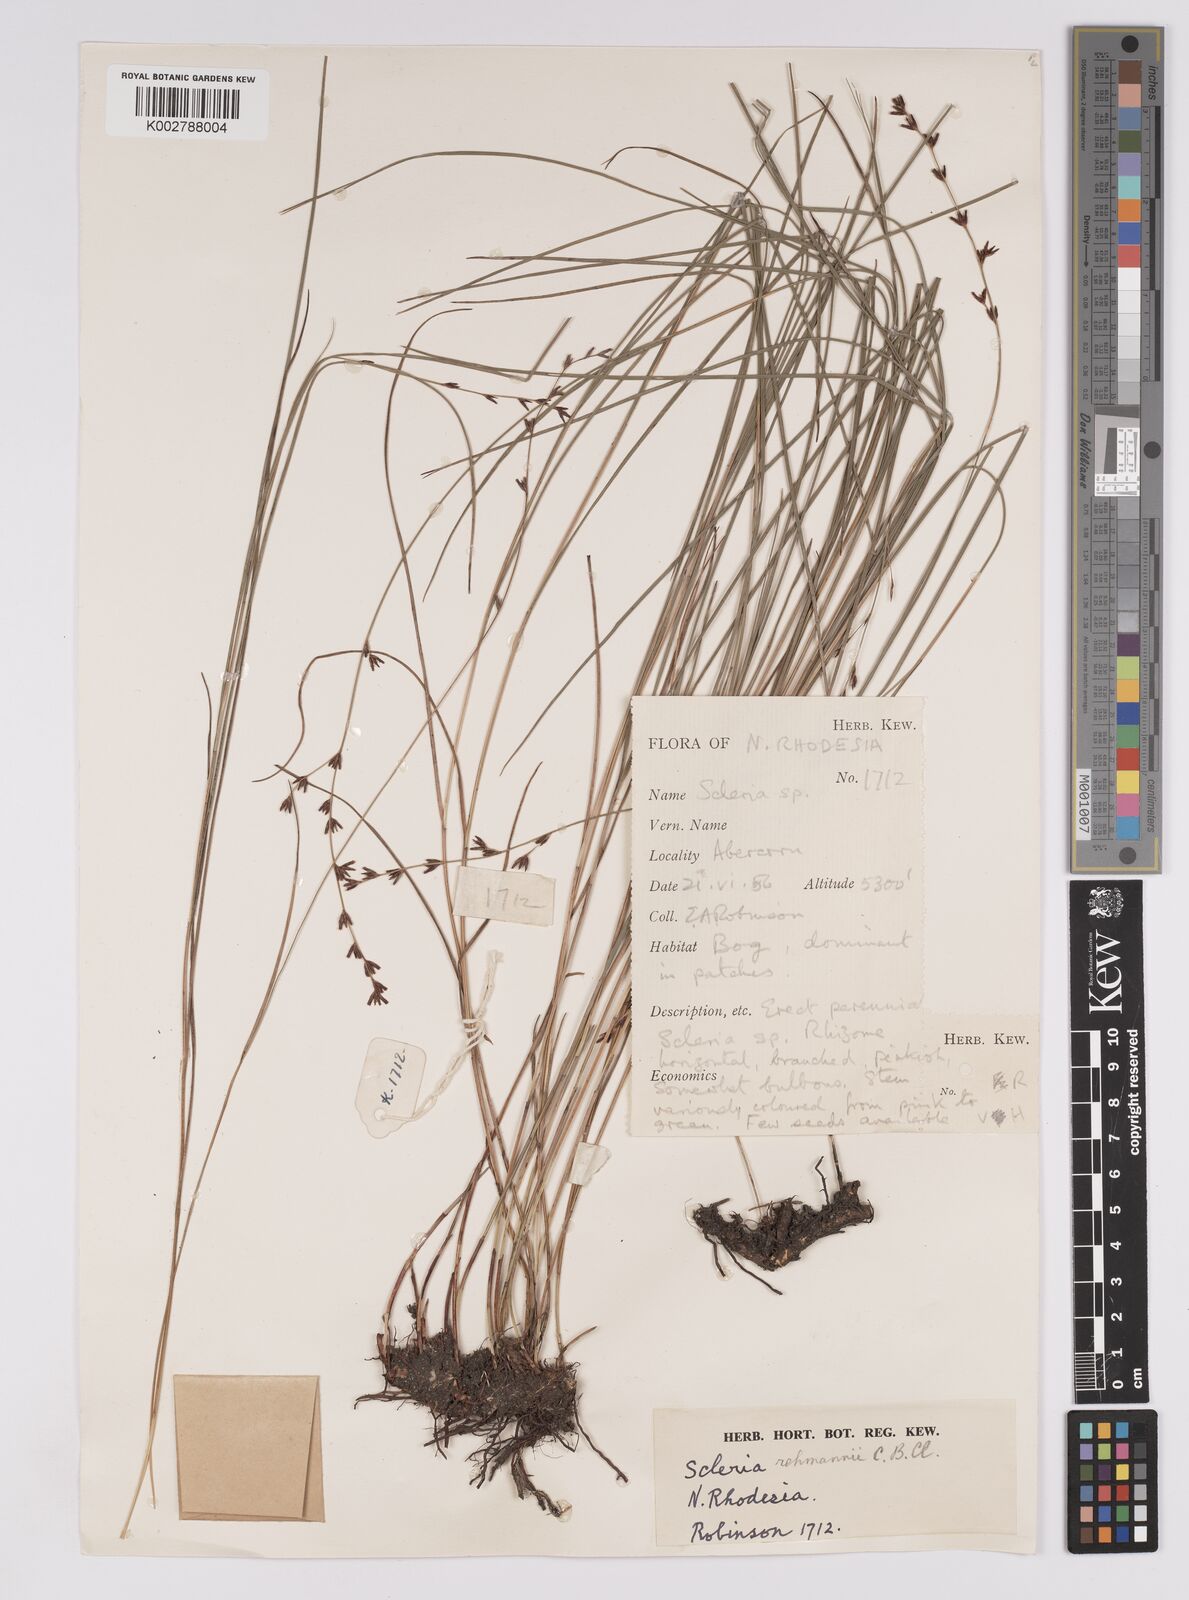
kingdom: Plantae
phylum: Tracheophyta
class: Liliopsida
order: Poales
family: Cyperaceae
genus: Scleria
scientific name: Scleria rehmannii
